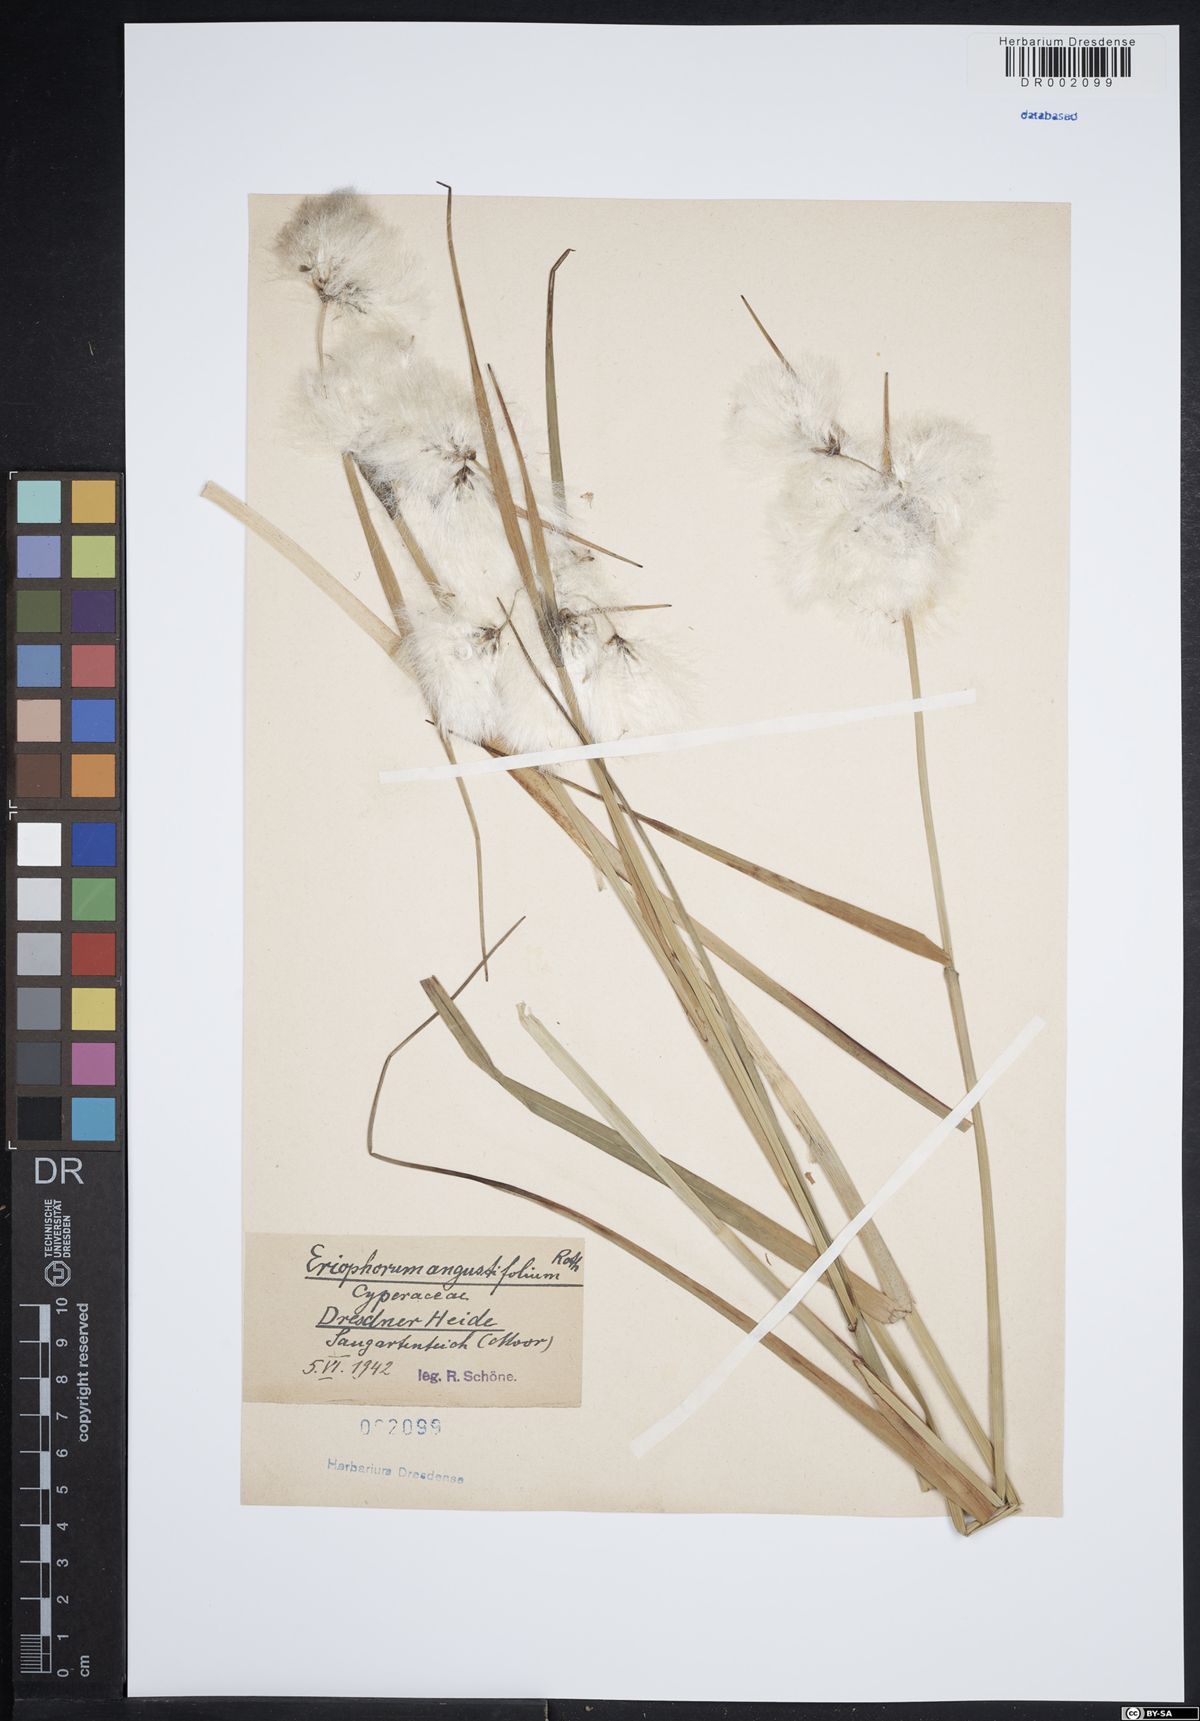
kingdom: Plantae
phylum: Tracheophyta
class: Liliopsida
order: Poales
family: Cyperaceae
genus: Eriophorum
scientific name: Eriophorum angustifolium
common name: Common cottongrass
